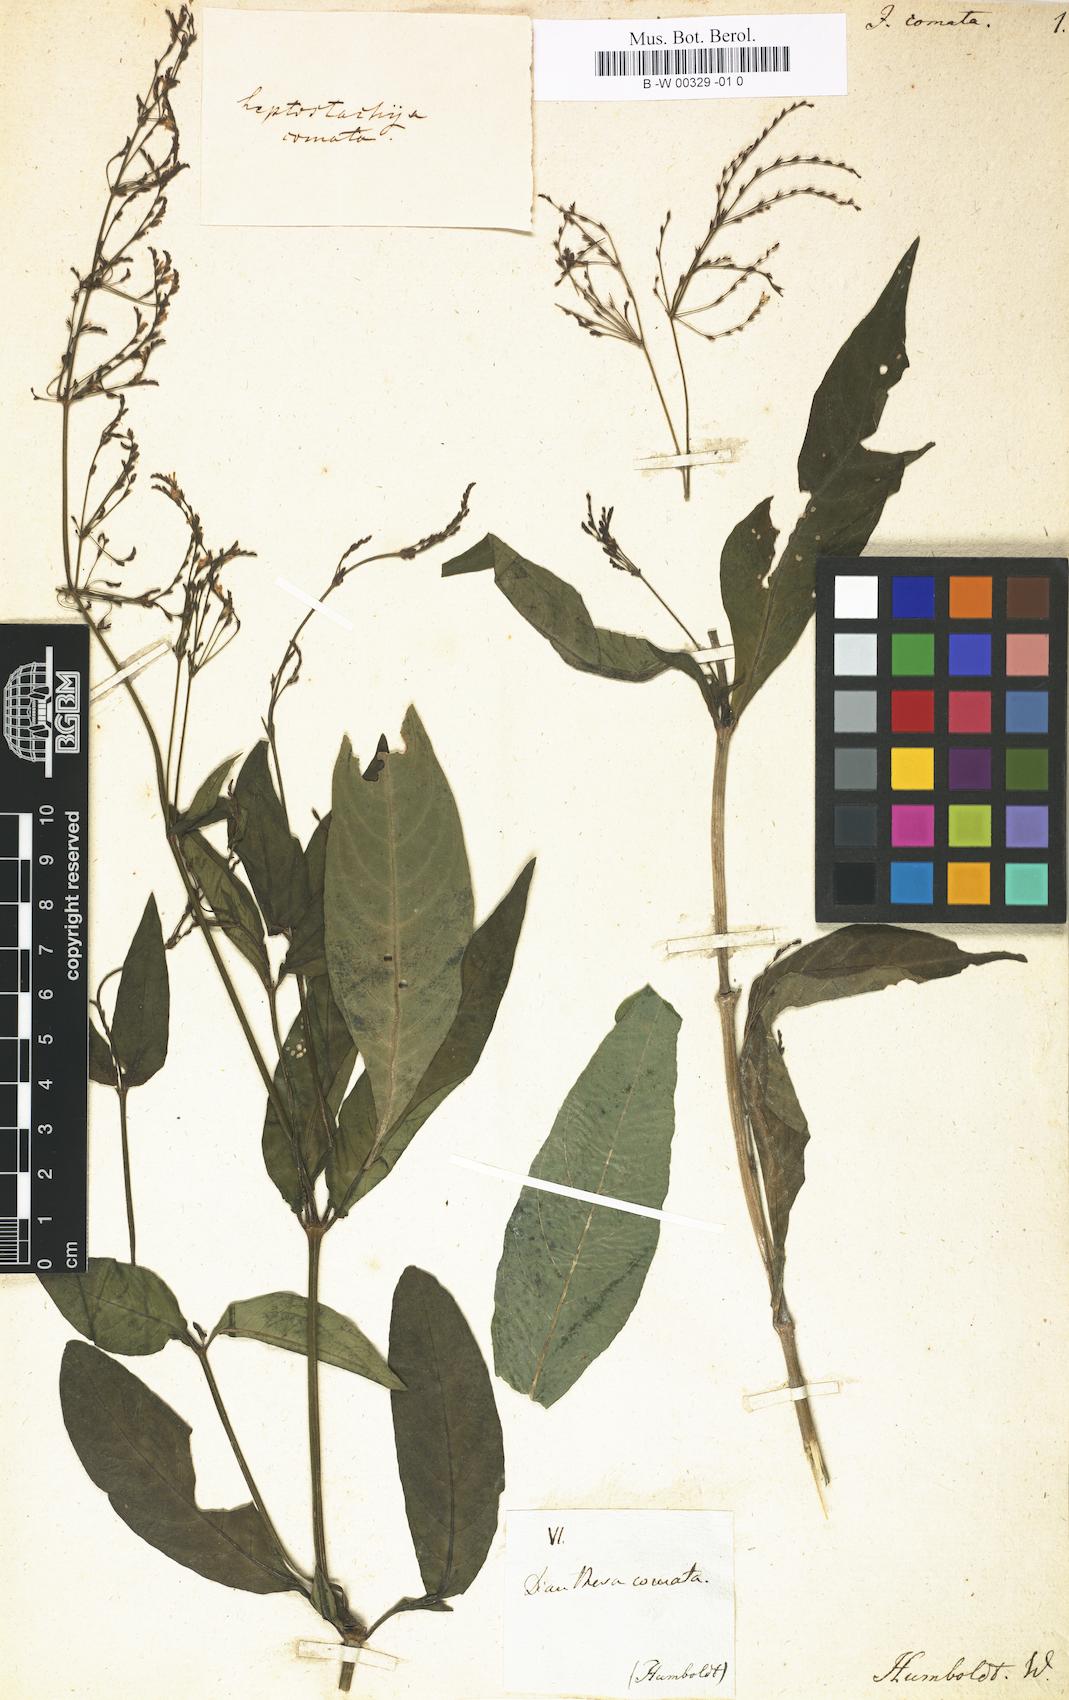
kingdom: Plantae
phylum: Tracheophyta
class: Magnoliopsida
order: Lamiales
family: Acanthaceae
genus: Dianthera
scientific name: Dianthera comata
